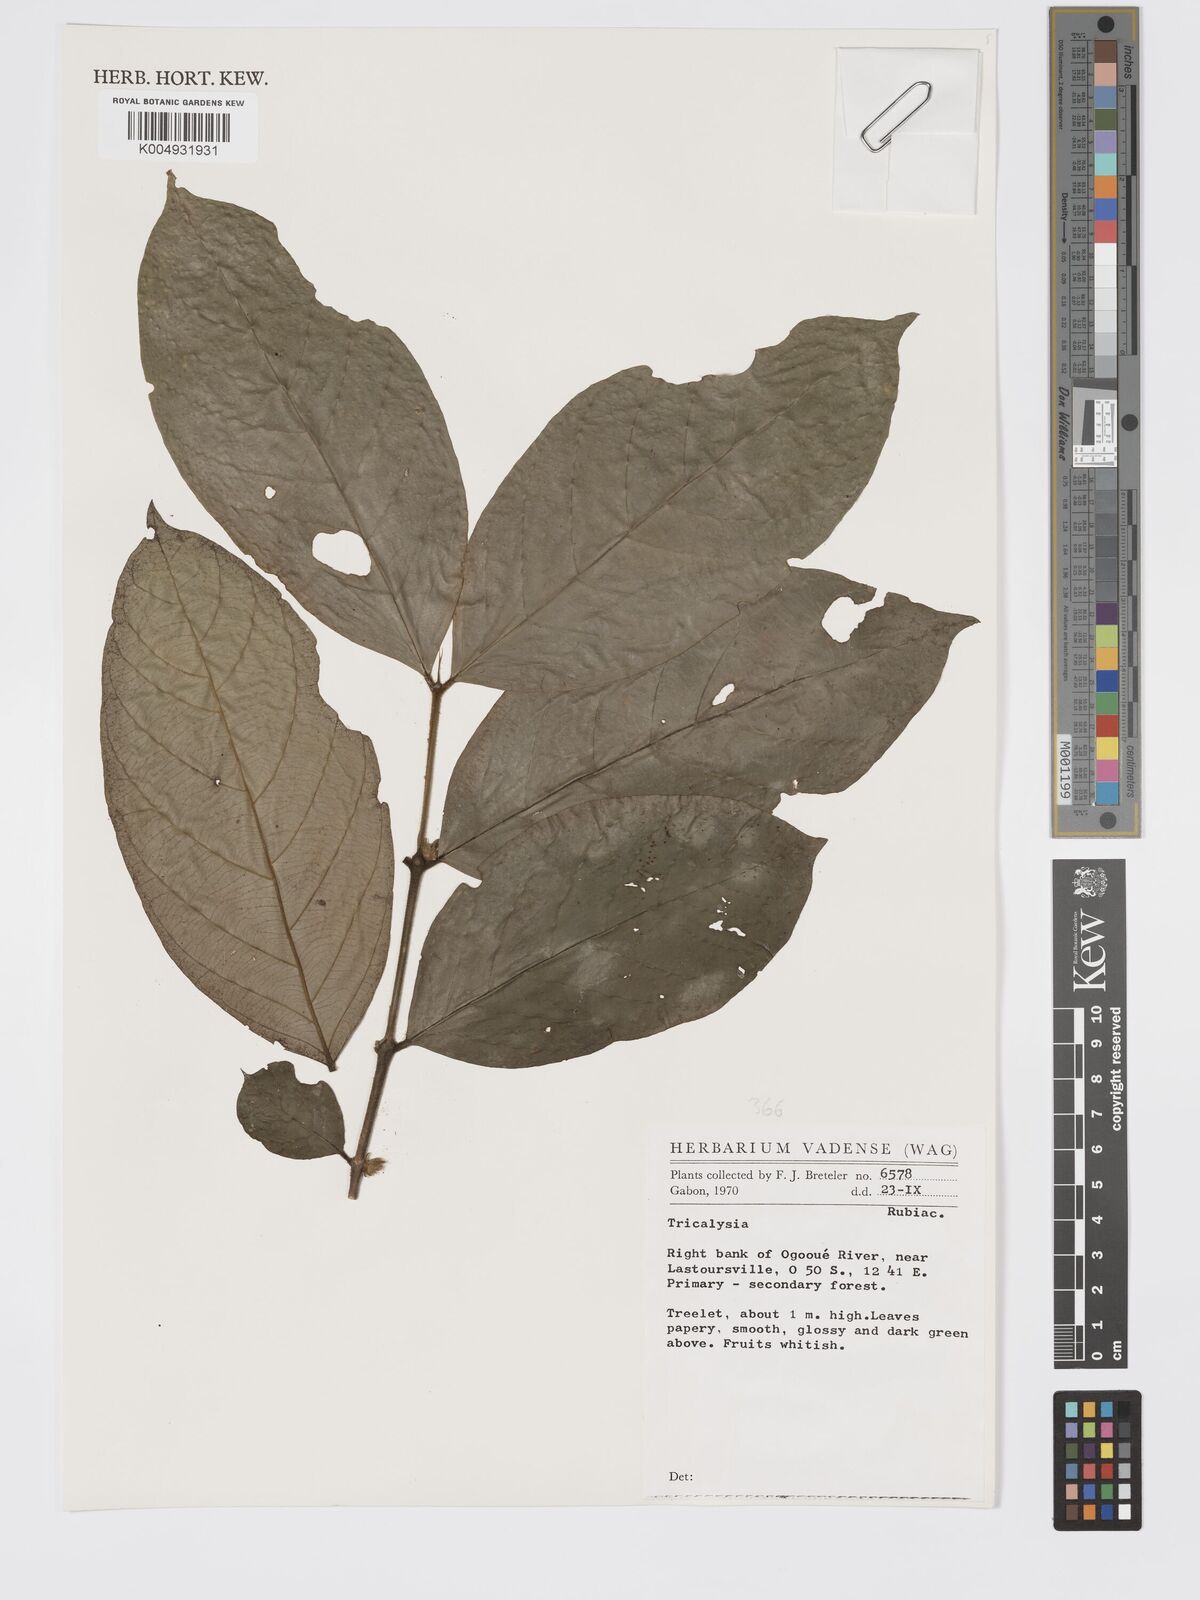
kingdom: Plantae
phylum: Tracheophyta
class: Magnoliopsida
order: Gentianales
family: Rubiaceae
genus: Tricalysia
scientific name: Tricalysia
